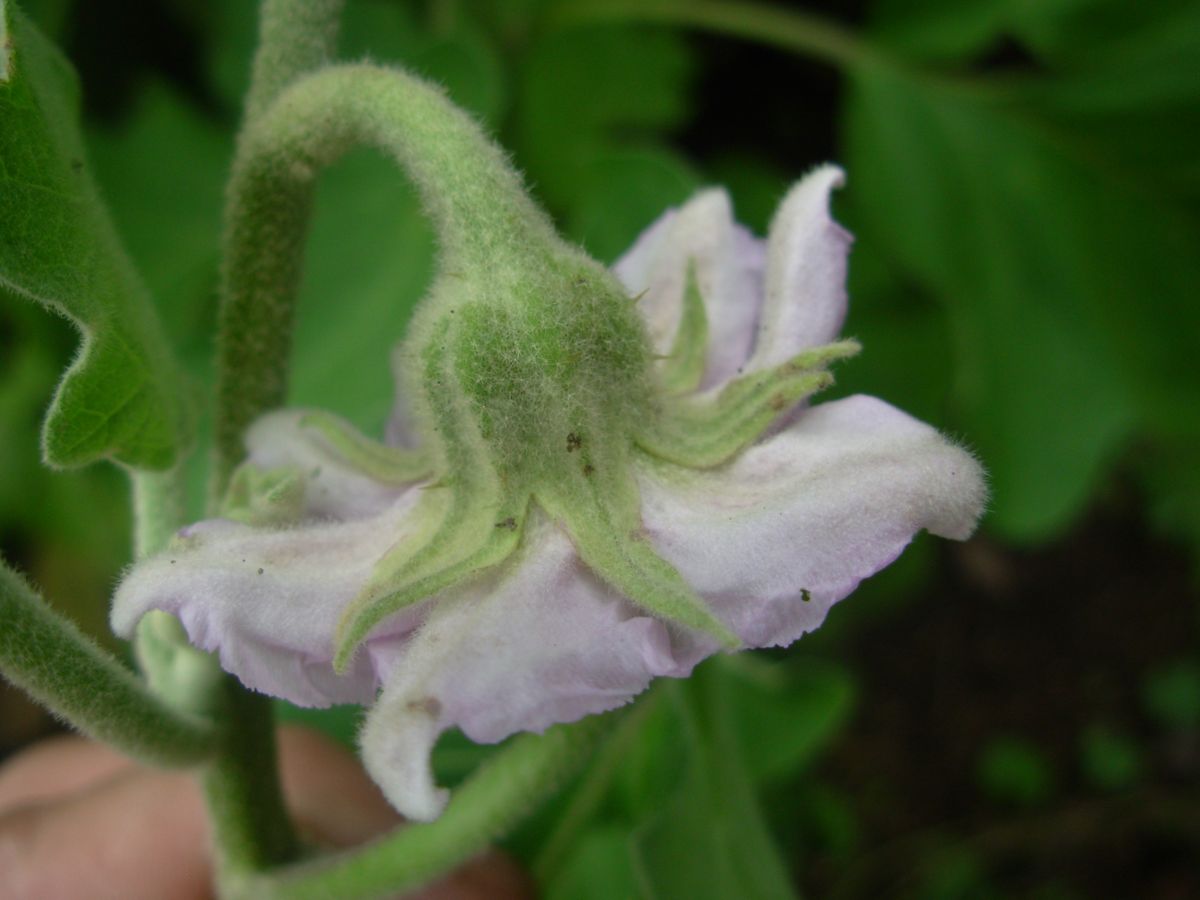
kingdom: Plantae
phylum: Tracheophyta
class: Magnoliopsida
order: Solanales
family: Solanaceae
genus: Solanum
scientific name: Solanum melongena
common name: Eggplant
